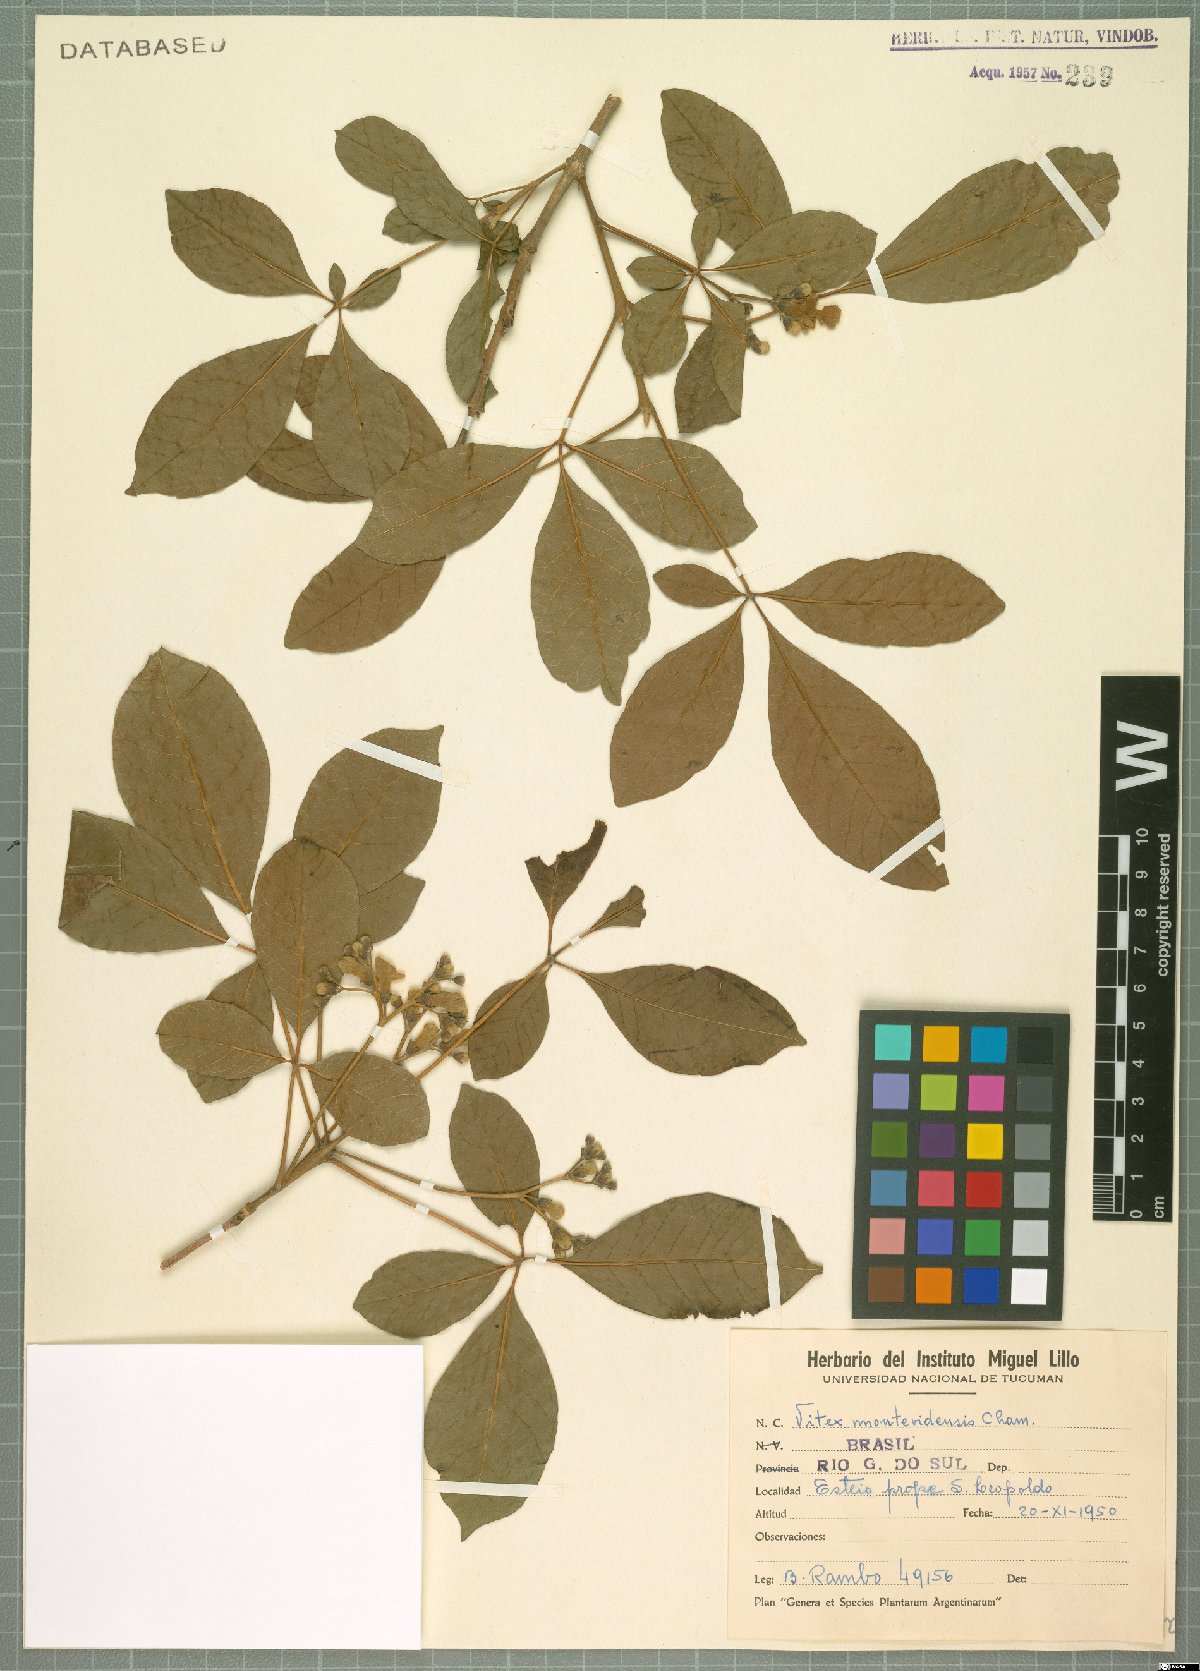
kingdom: Plantae
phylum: Tracheophyta
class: Magnoliopsida
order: Lamiales
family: Lamiaceae
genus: Vitex
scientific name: Vitex megapotamica
